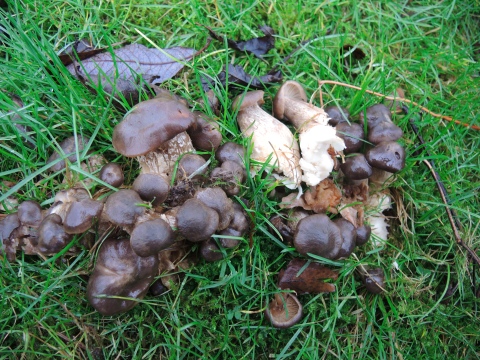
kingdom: Fungi
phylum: Basidiomycota
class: Agaricomycetes
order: Agaricales
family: Lyophyllaceae
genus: Lyophyllum
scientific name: Lyophyllum decastes
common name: røggrå gråblad
